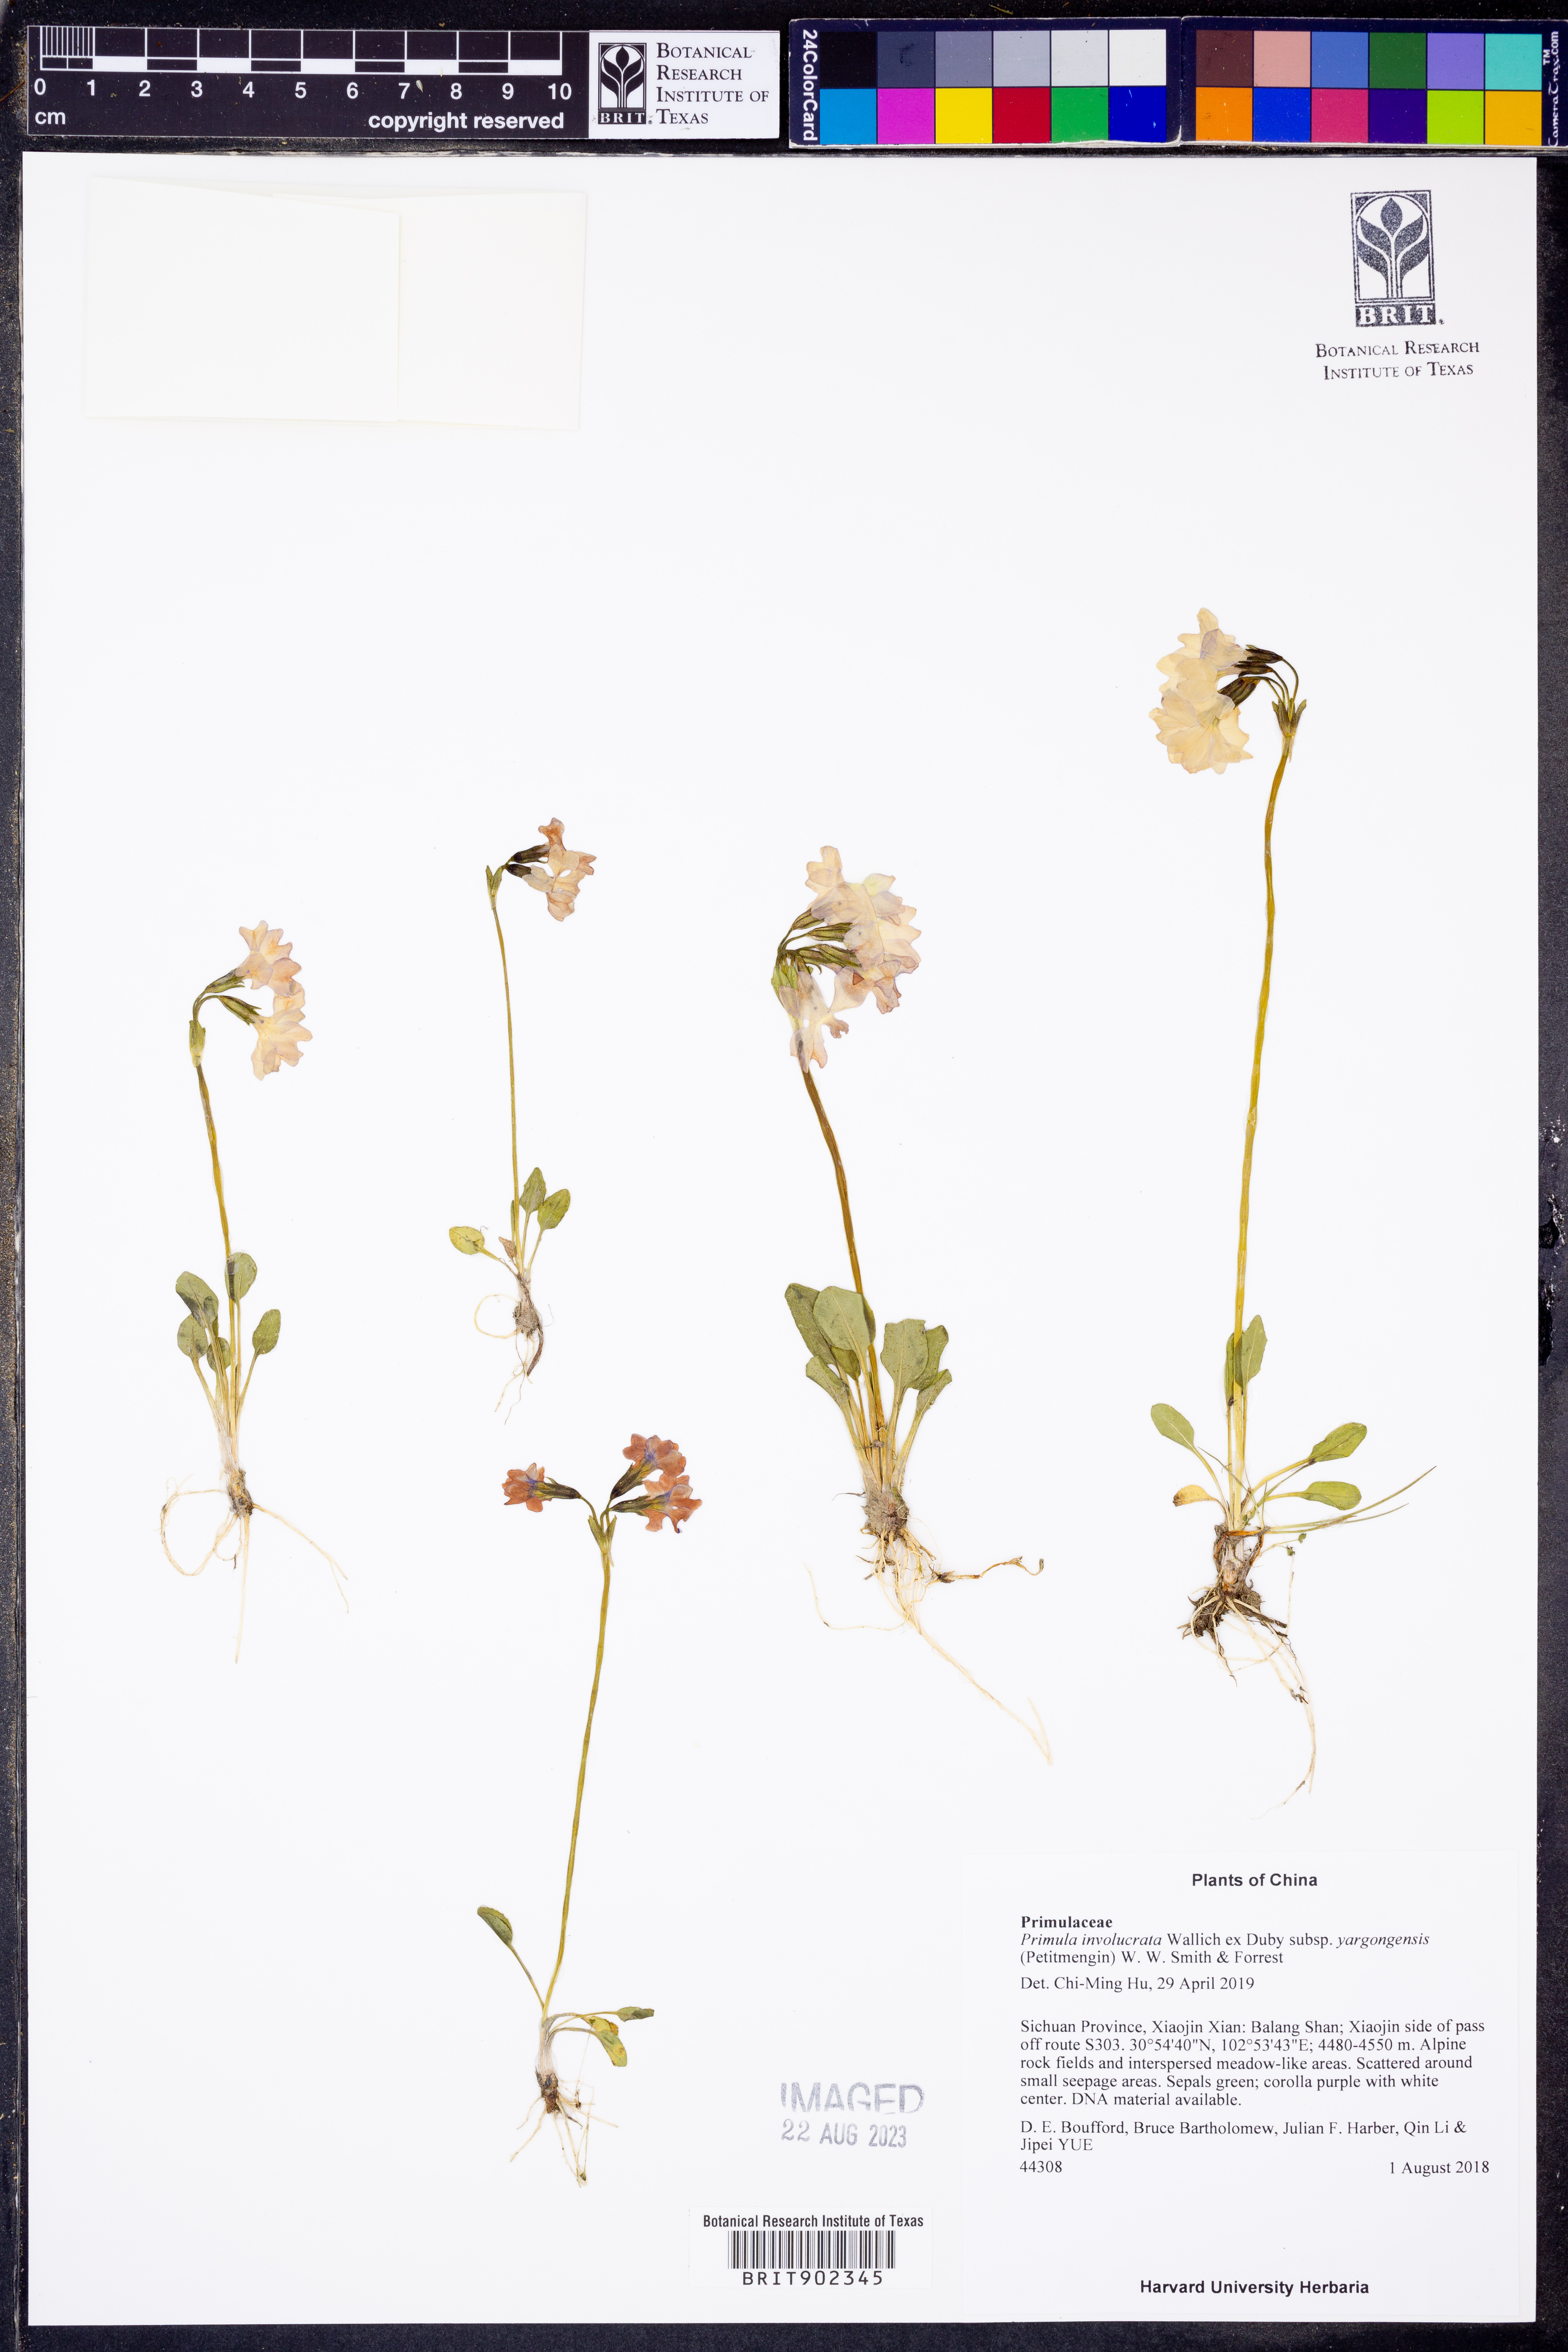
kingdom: Plantae
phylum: Tracheophyta
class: Magnoliopsida
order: Ericales
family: Primulaceae
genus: Primula
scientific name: Primula
